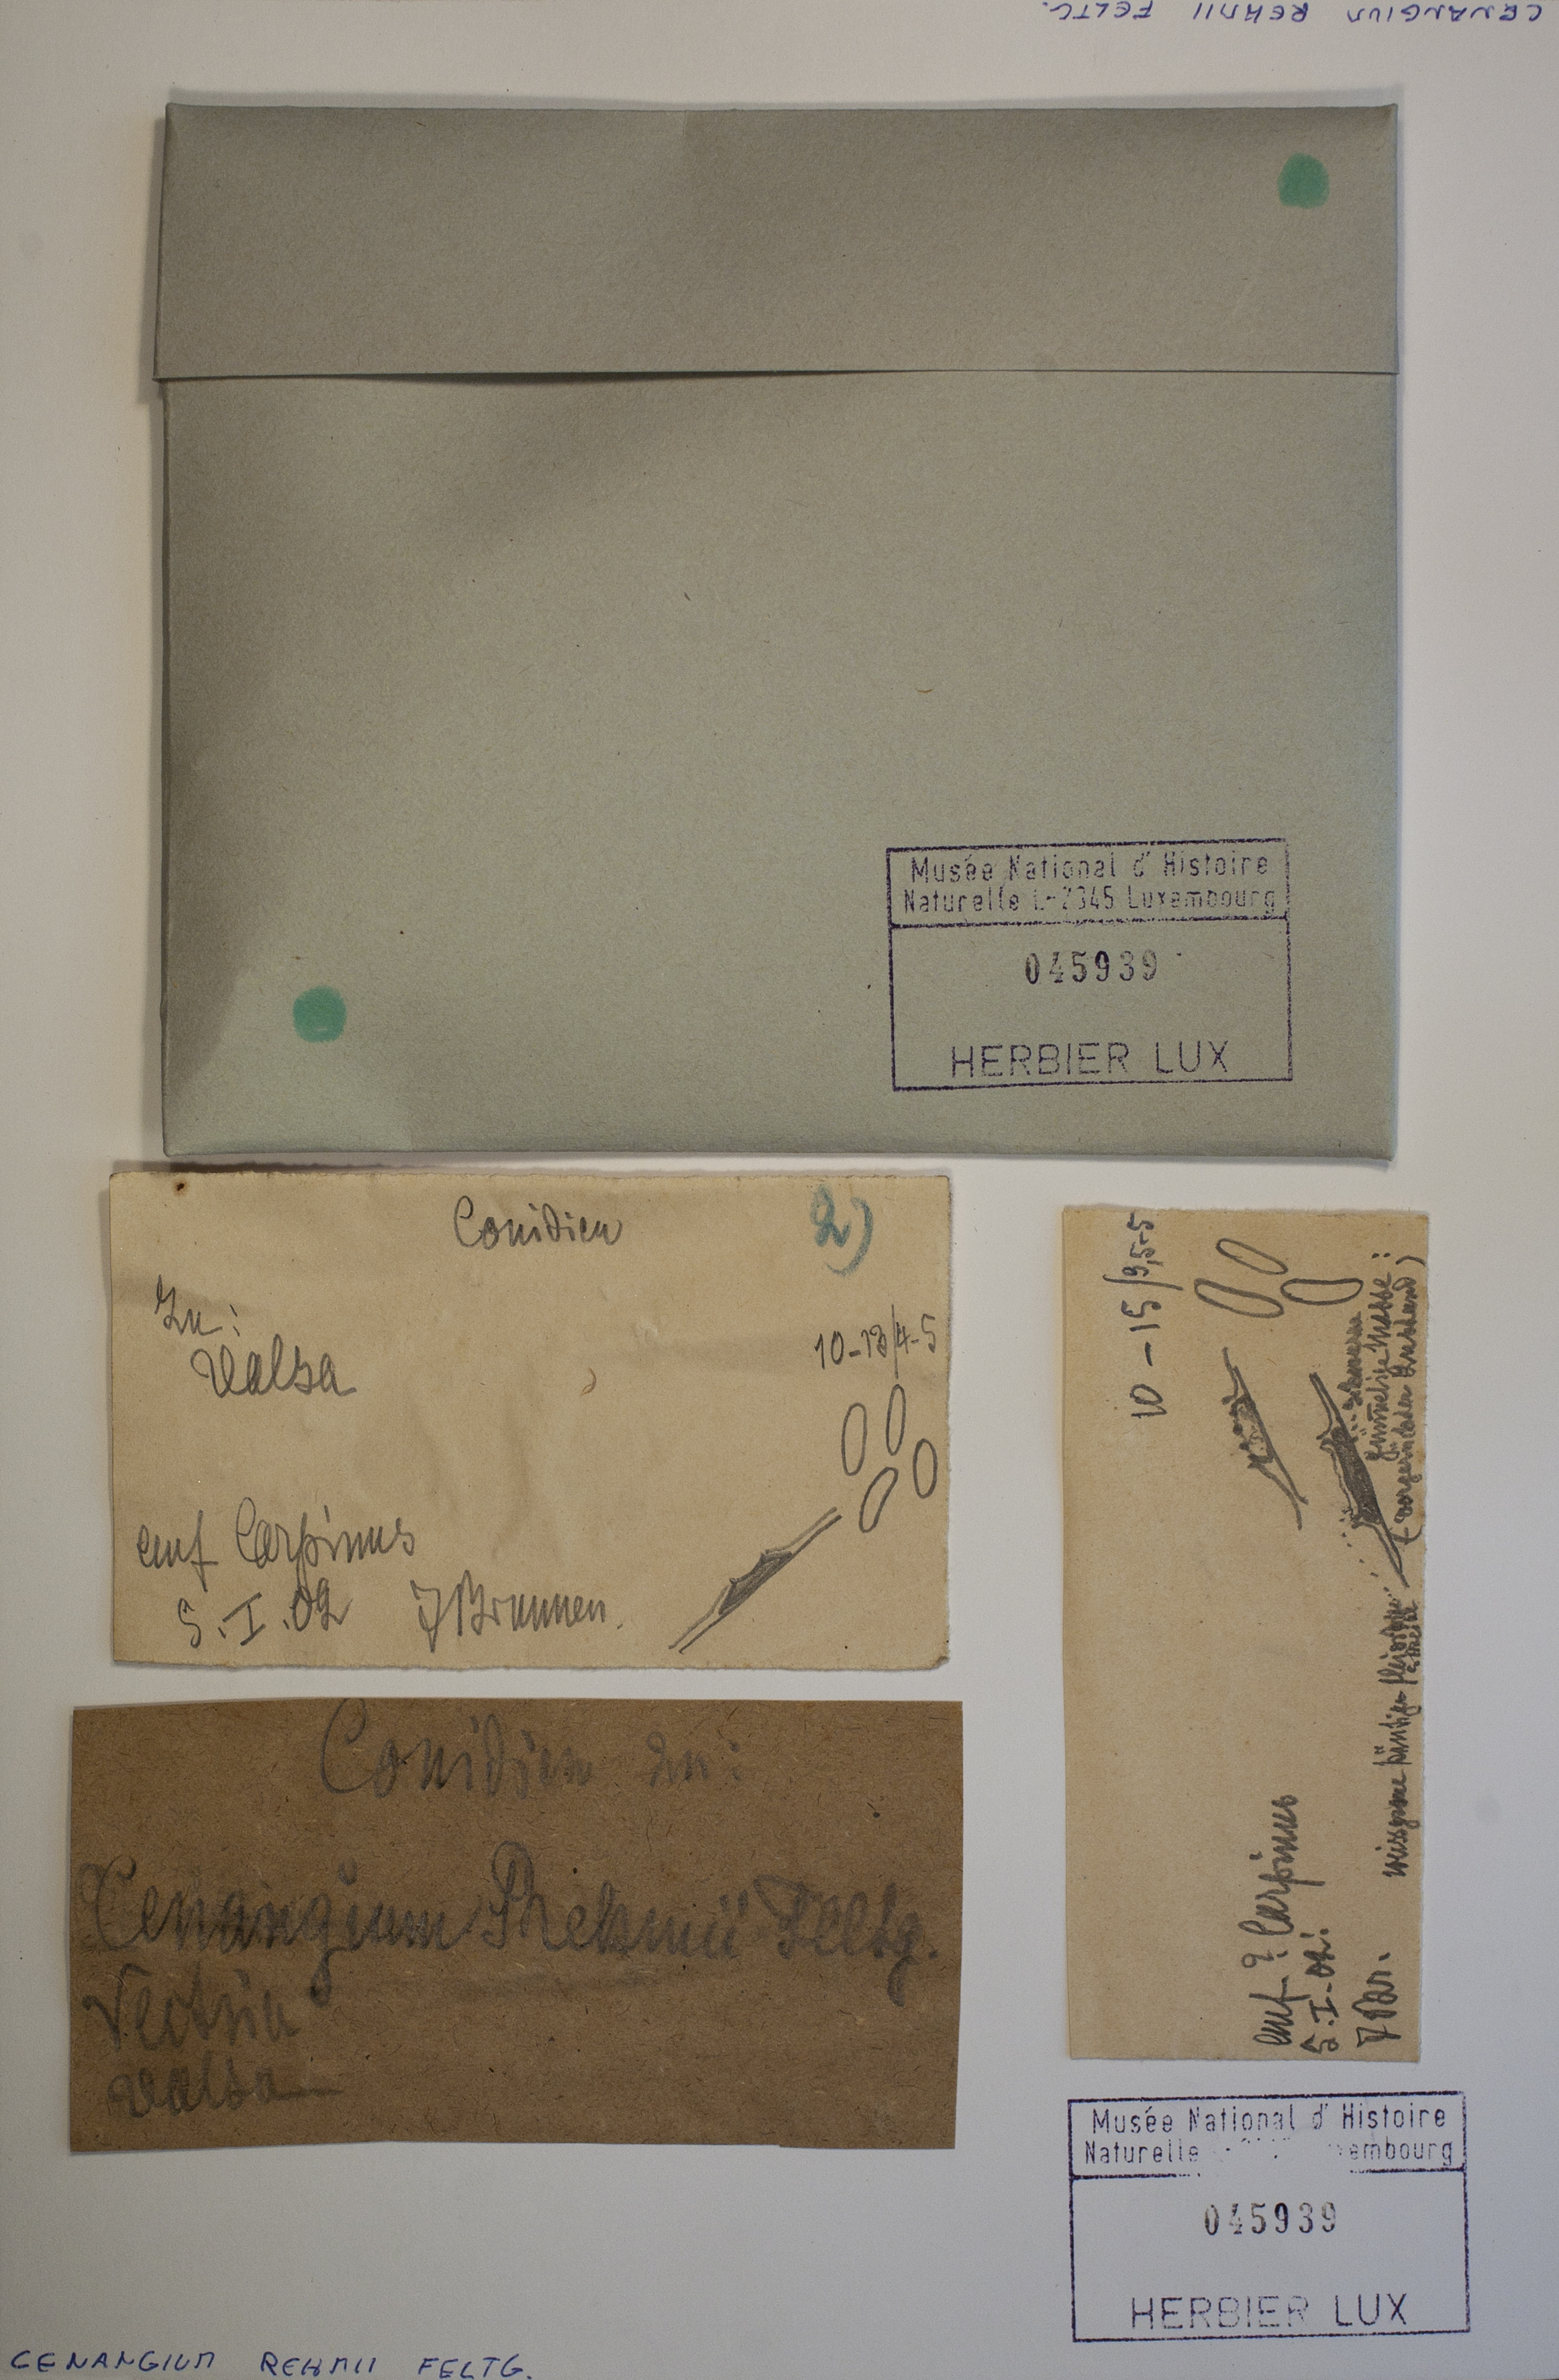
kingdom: Fungi
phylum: Ascomycota
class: Leotiomycetes
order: Phacidiales
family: Phacidiaceae
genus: Pseudophacidium
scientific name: Pseudophacidium rehmii
